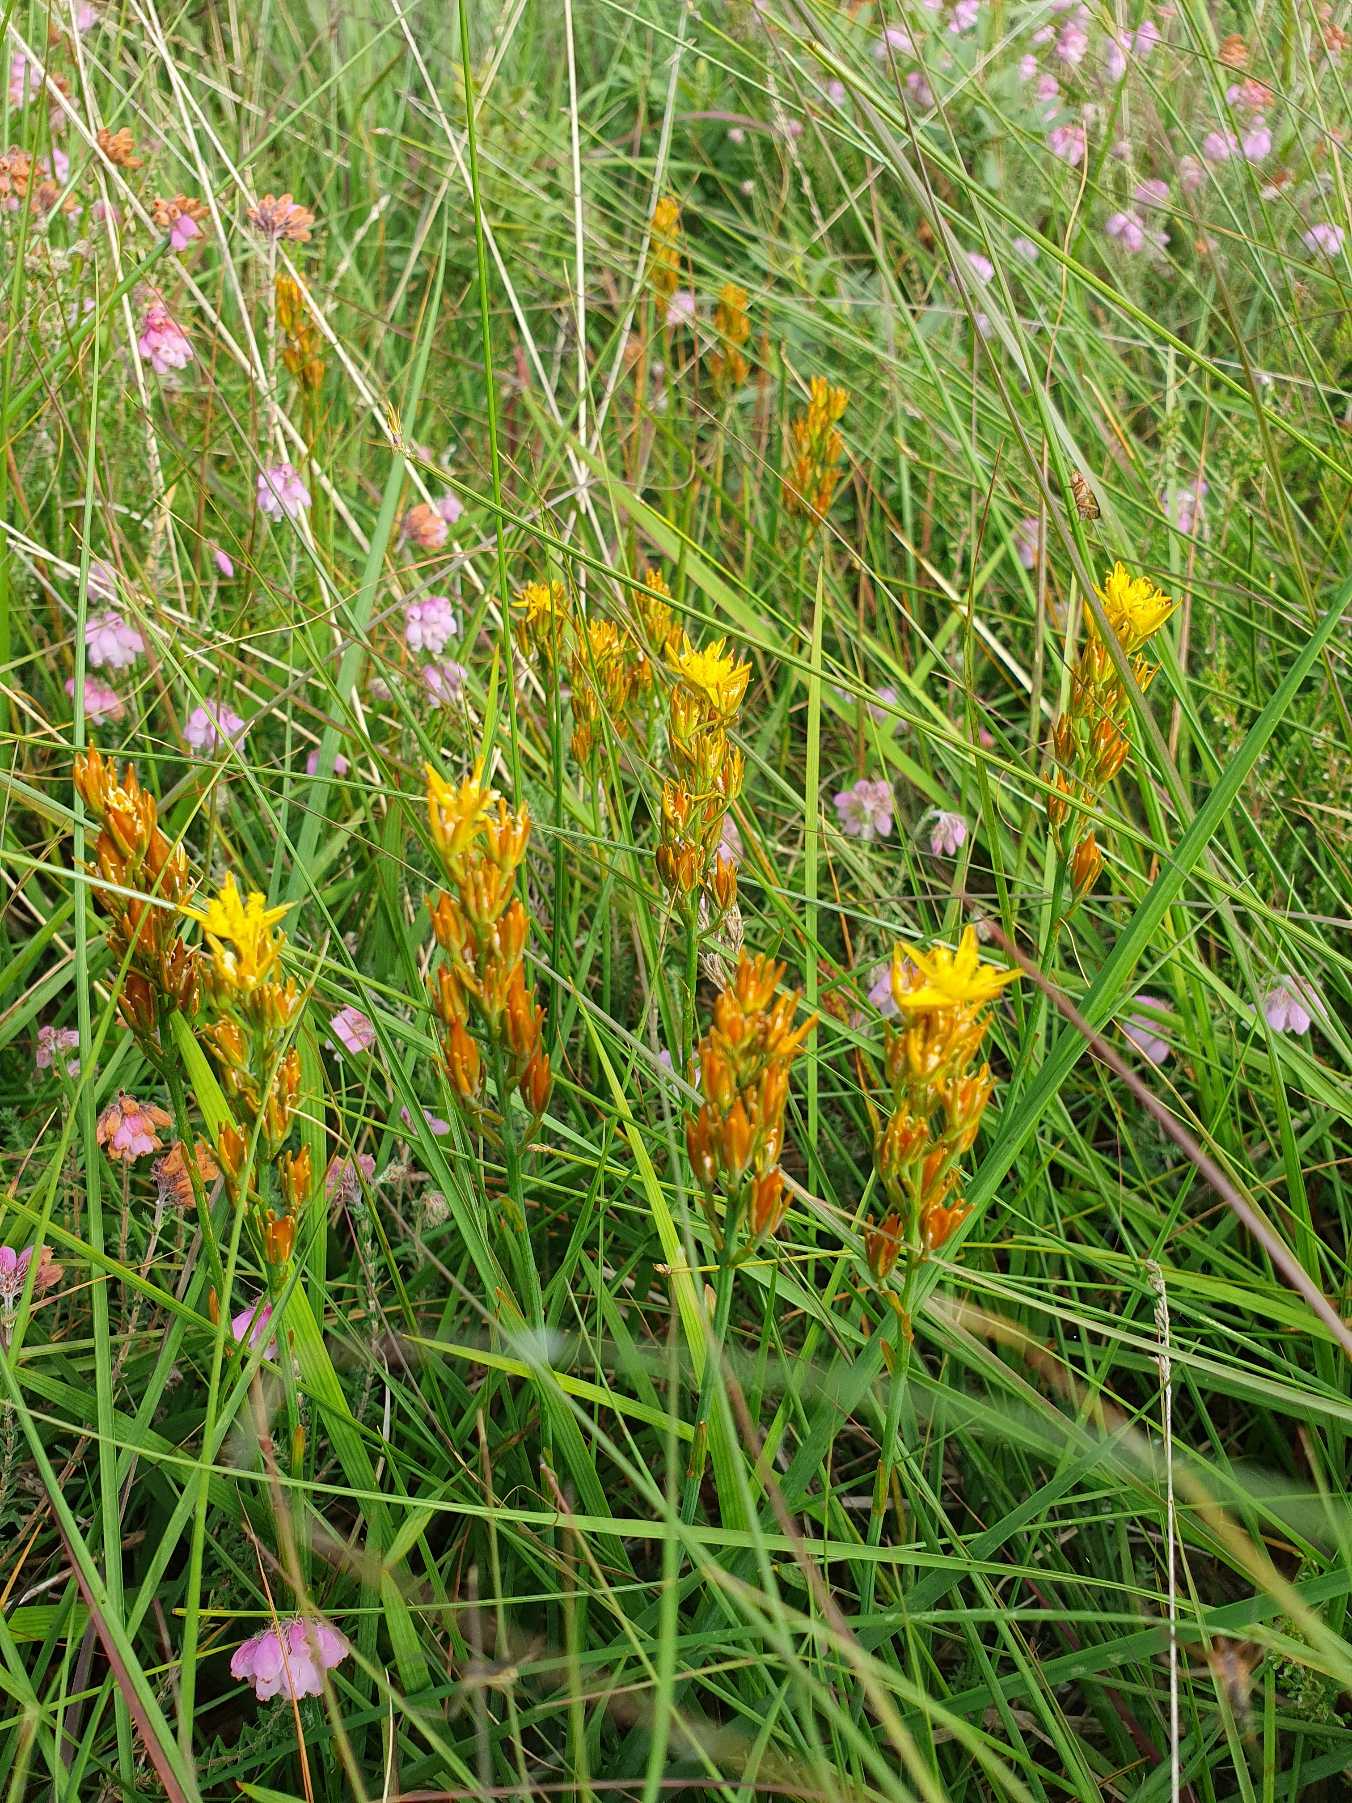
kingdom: Plantae
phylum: Tracheophyta
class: Liliopsida
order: Dioscoreales
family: Nartheciaceae
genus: Narthecium
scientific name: Narthecium ossifragum
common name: Benbræk
